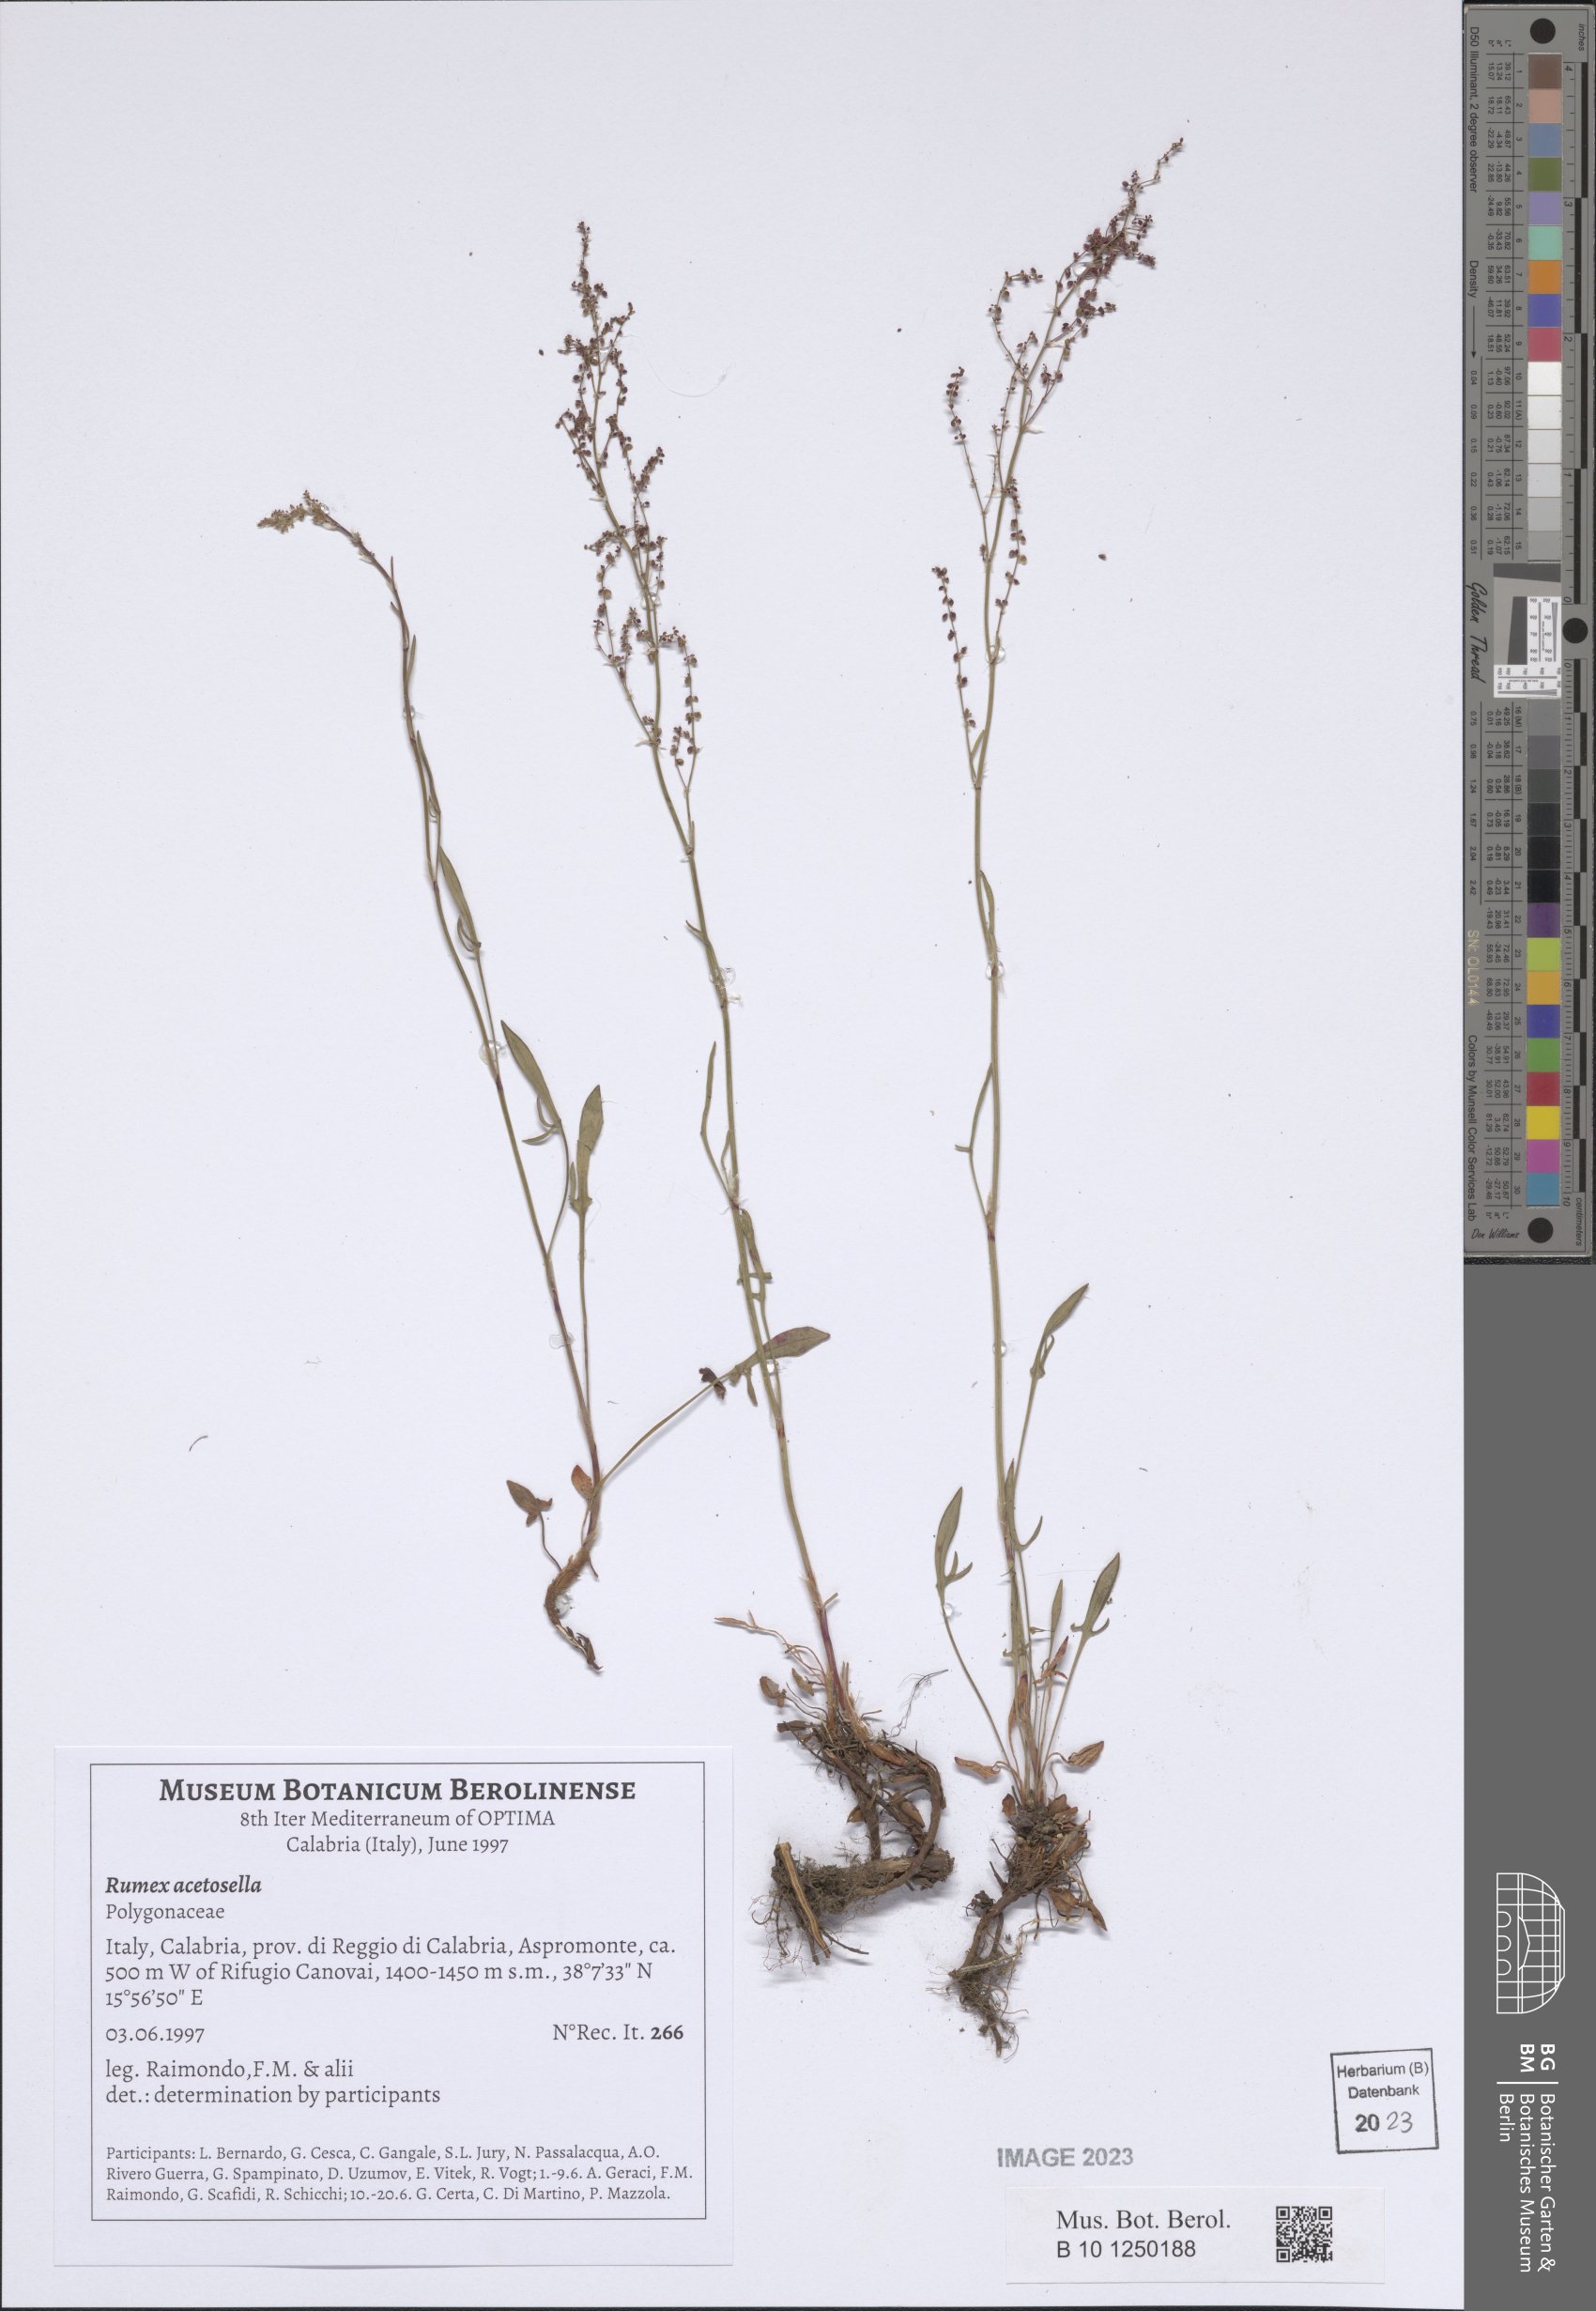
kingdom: Plantae
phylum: Tracheophyta
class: Magnoliopsida
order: Caryophyllales
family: Polygonaceae
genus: Rumex
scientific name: Rumex acetosella
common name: Common sheep sorrel
